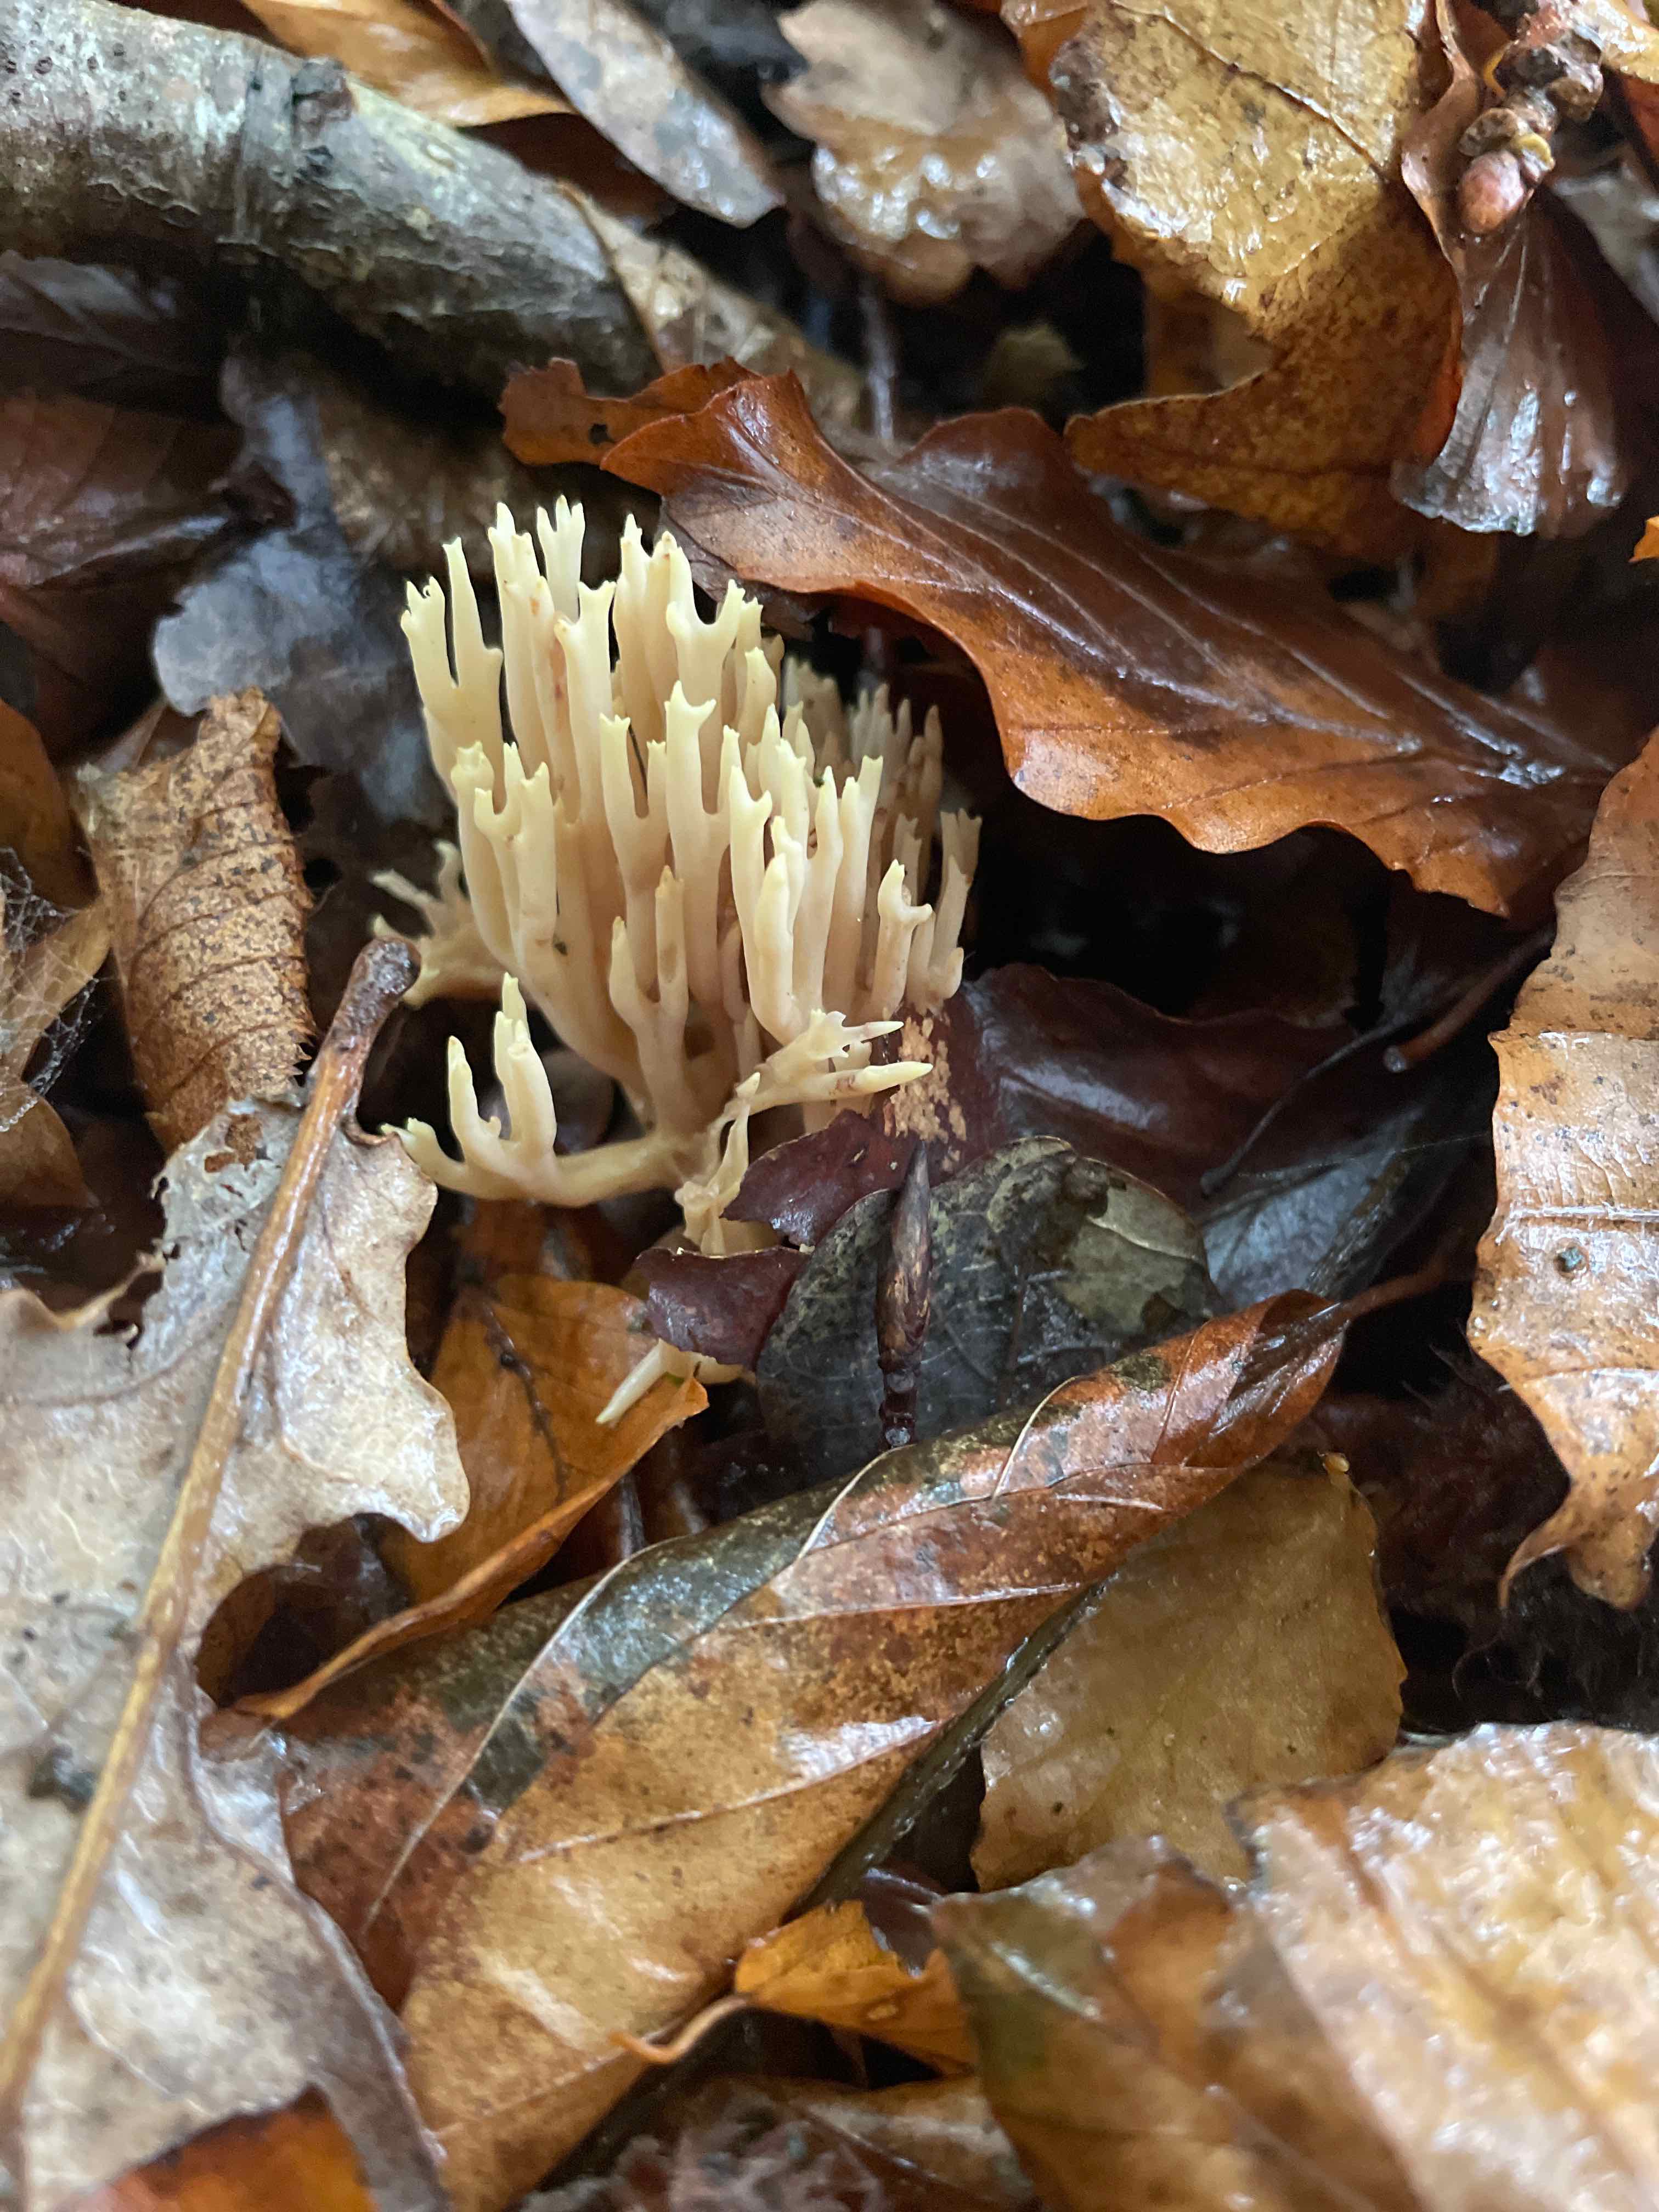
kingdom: Fungi
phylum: Basidiomycota
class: Agaricomycetes
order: Gomphales
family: Gomphaceae
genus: Ramaria
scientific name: Ramaria stricta
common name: rank koralsvamp
